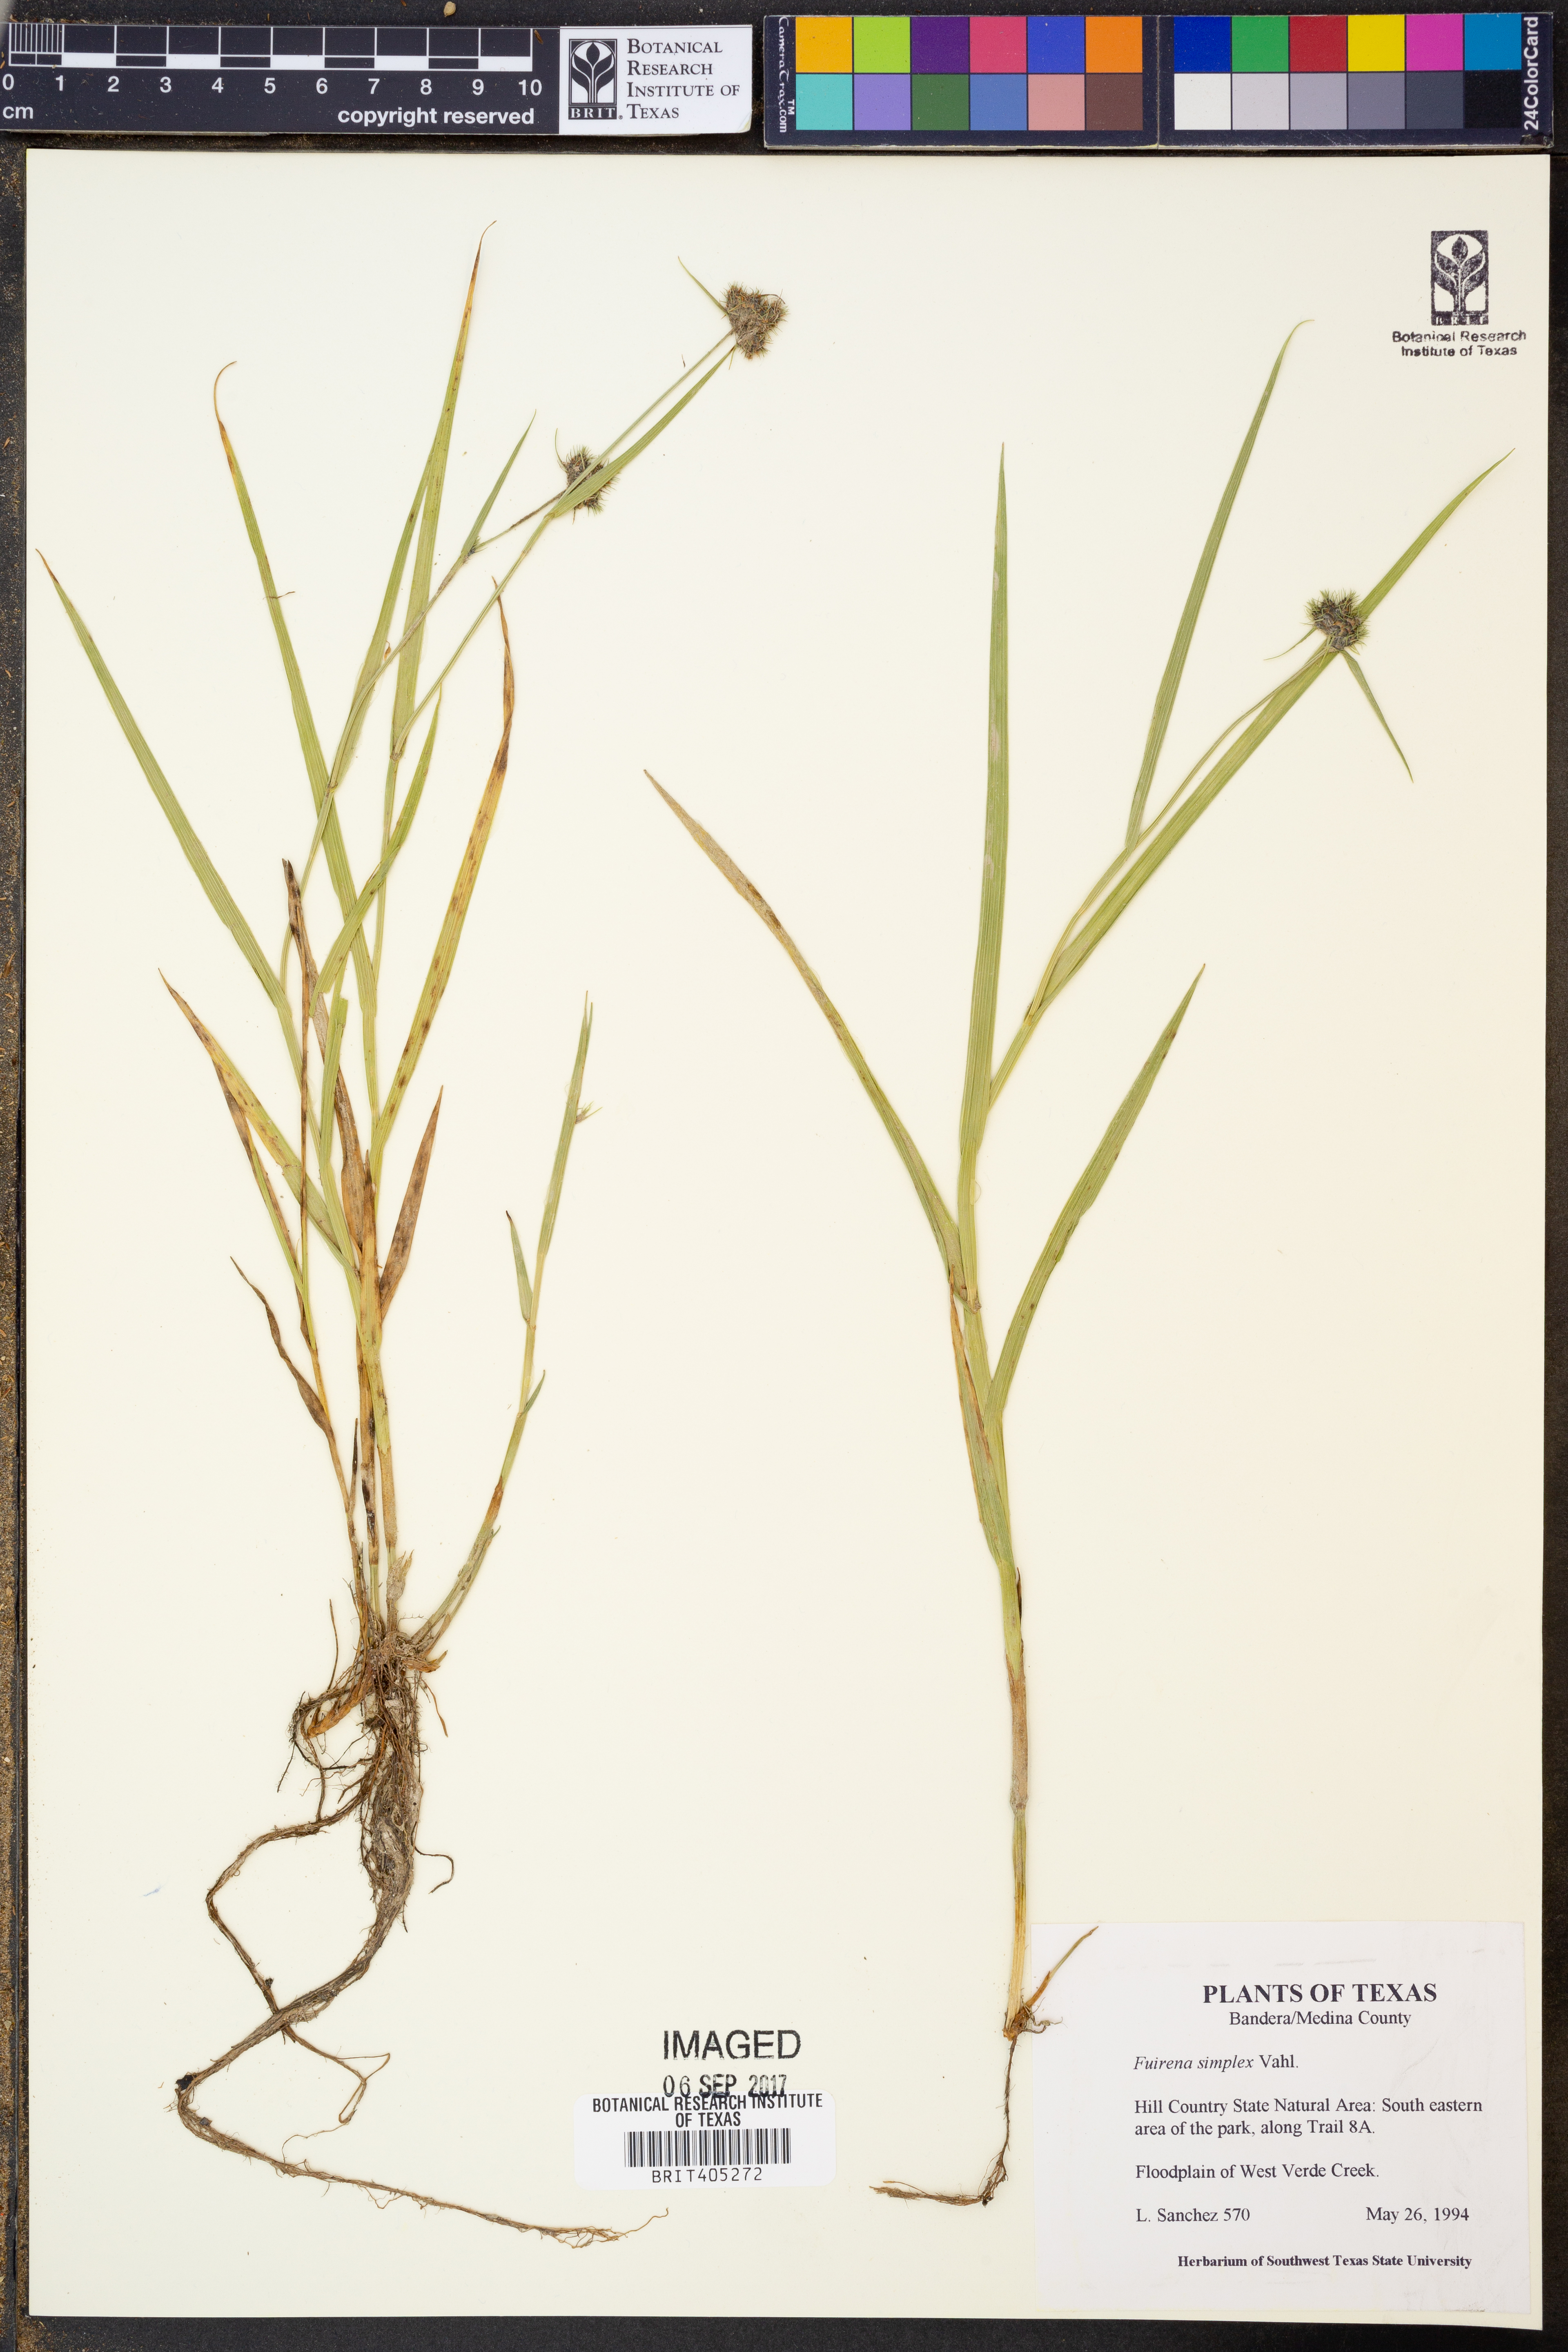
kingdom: Plantae
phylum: Tracheophyta
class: Liliopsida
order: Poales
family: Cyperaceae
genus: Fuirena
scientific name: Fuirena simplex
